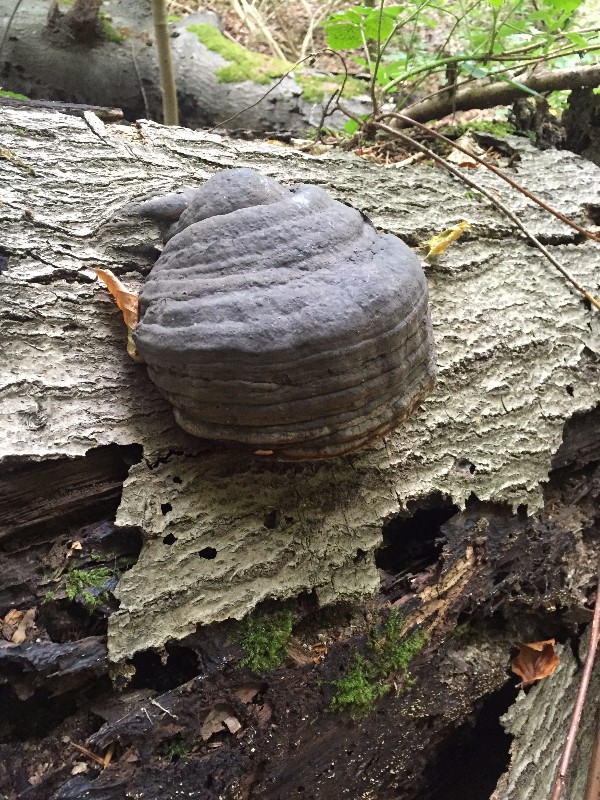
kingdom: Fungi
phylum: Basidiomycota
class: Agaricomycetes
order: Polyporales
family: Polyporaceae
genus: Fomes
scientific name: Fomes fomentarius
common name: tøndersvamp
